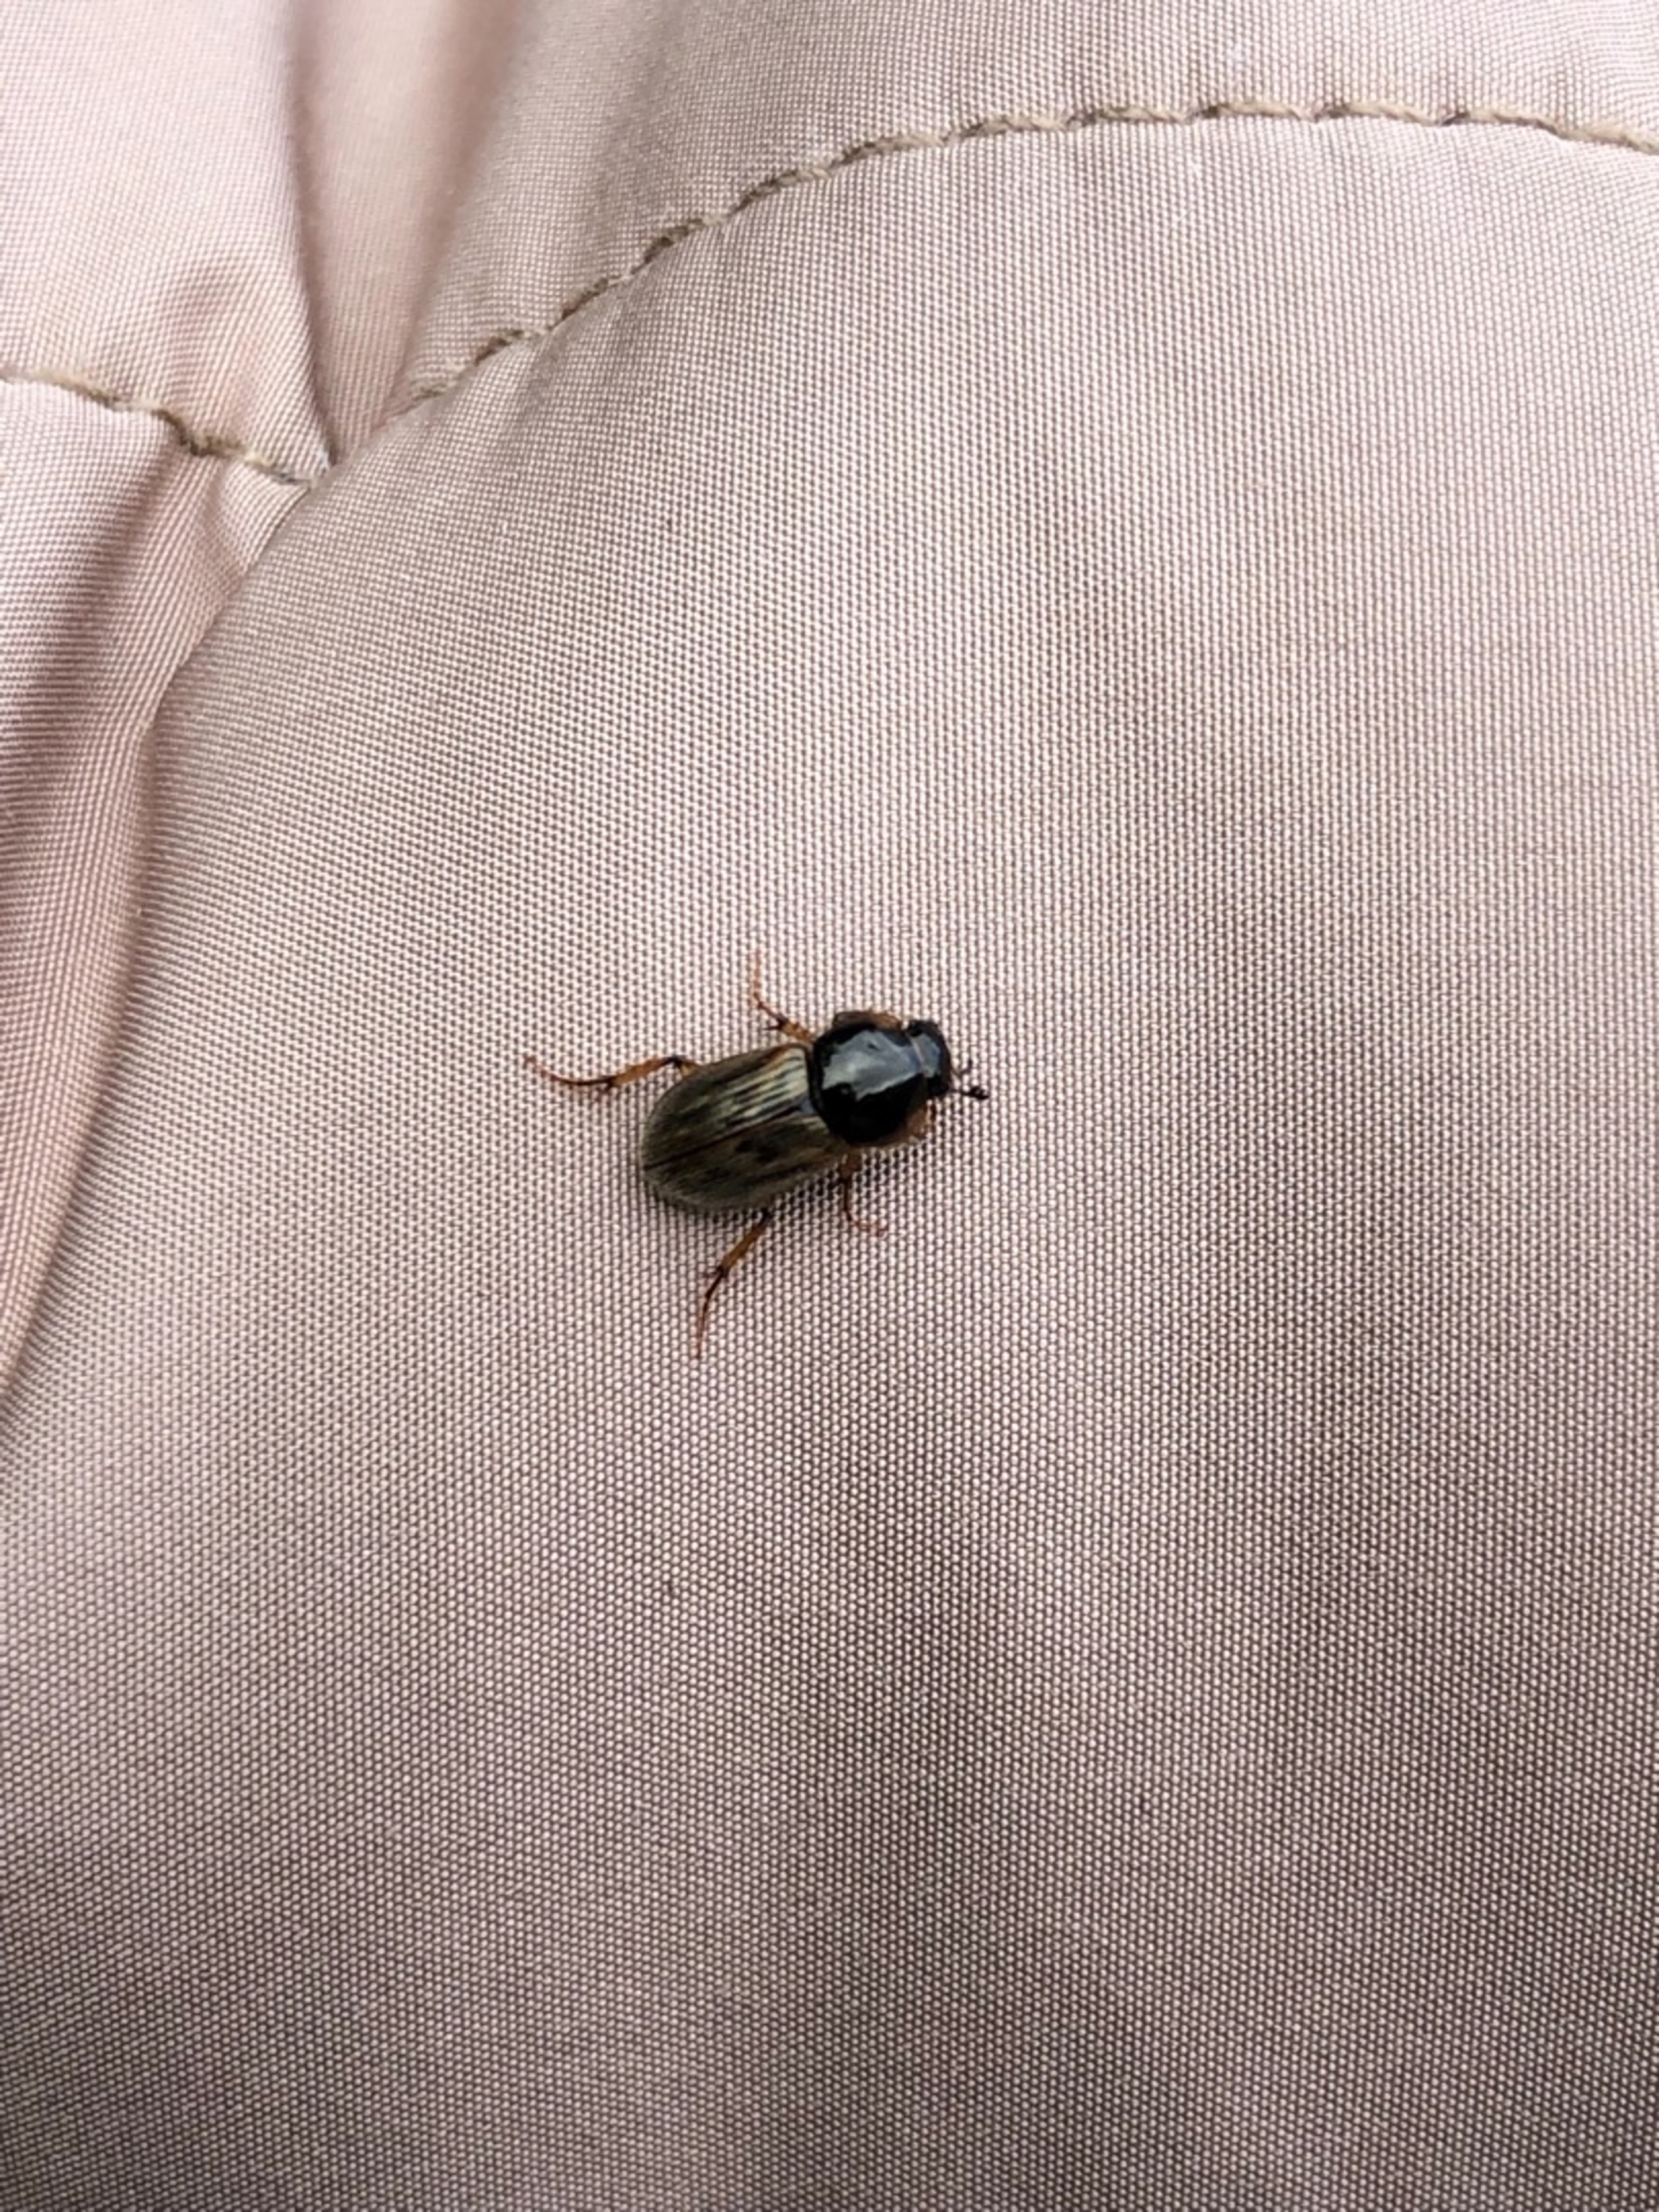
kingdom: Animalia
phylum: Arthropoda
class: Insecta
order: Coleoptera
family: Scarabaeidae
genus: Nimbus
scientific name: Nimbus contaminatus
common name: Sandhåret møgbille
